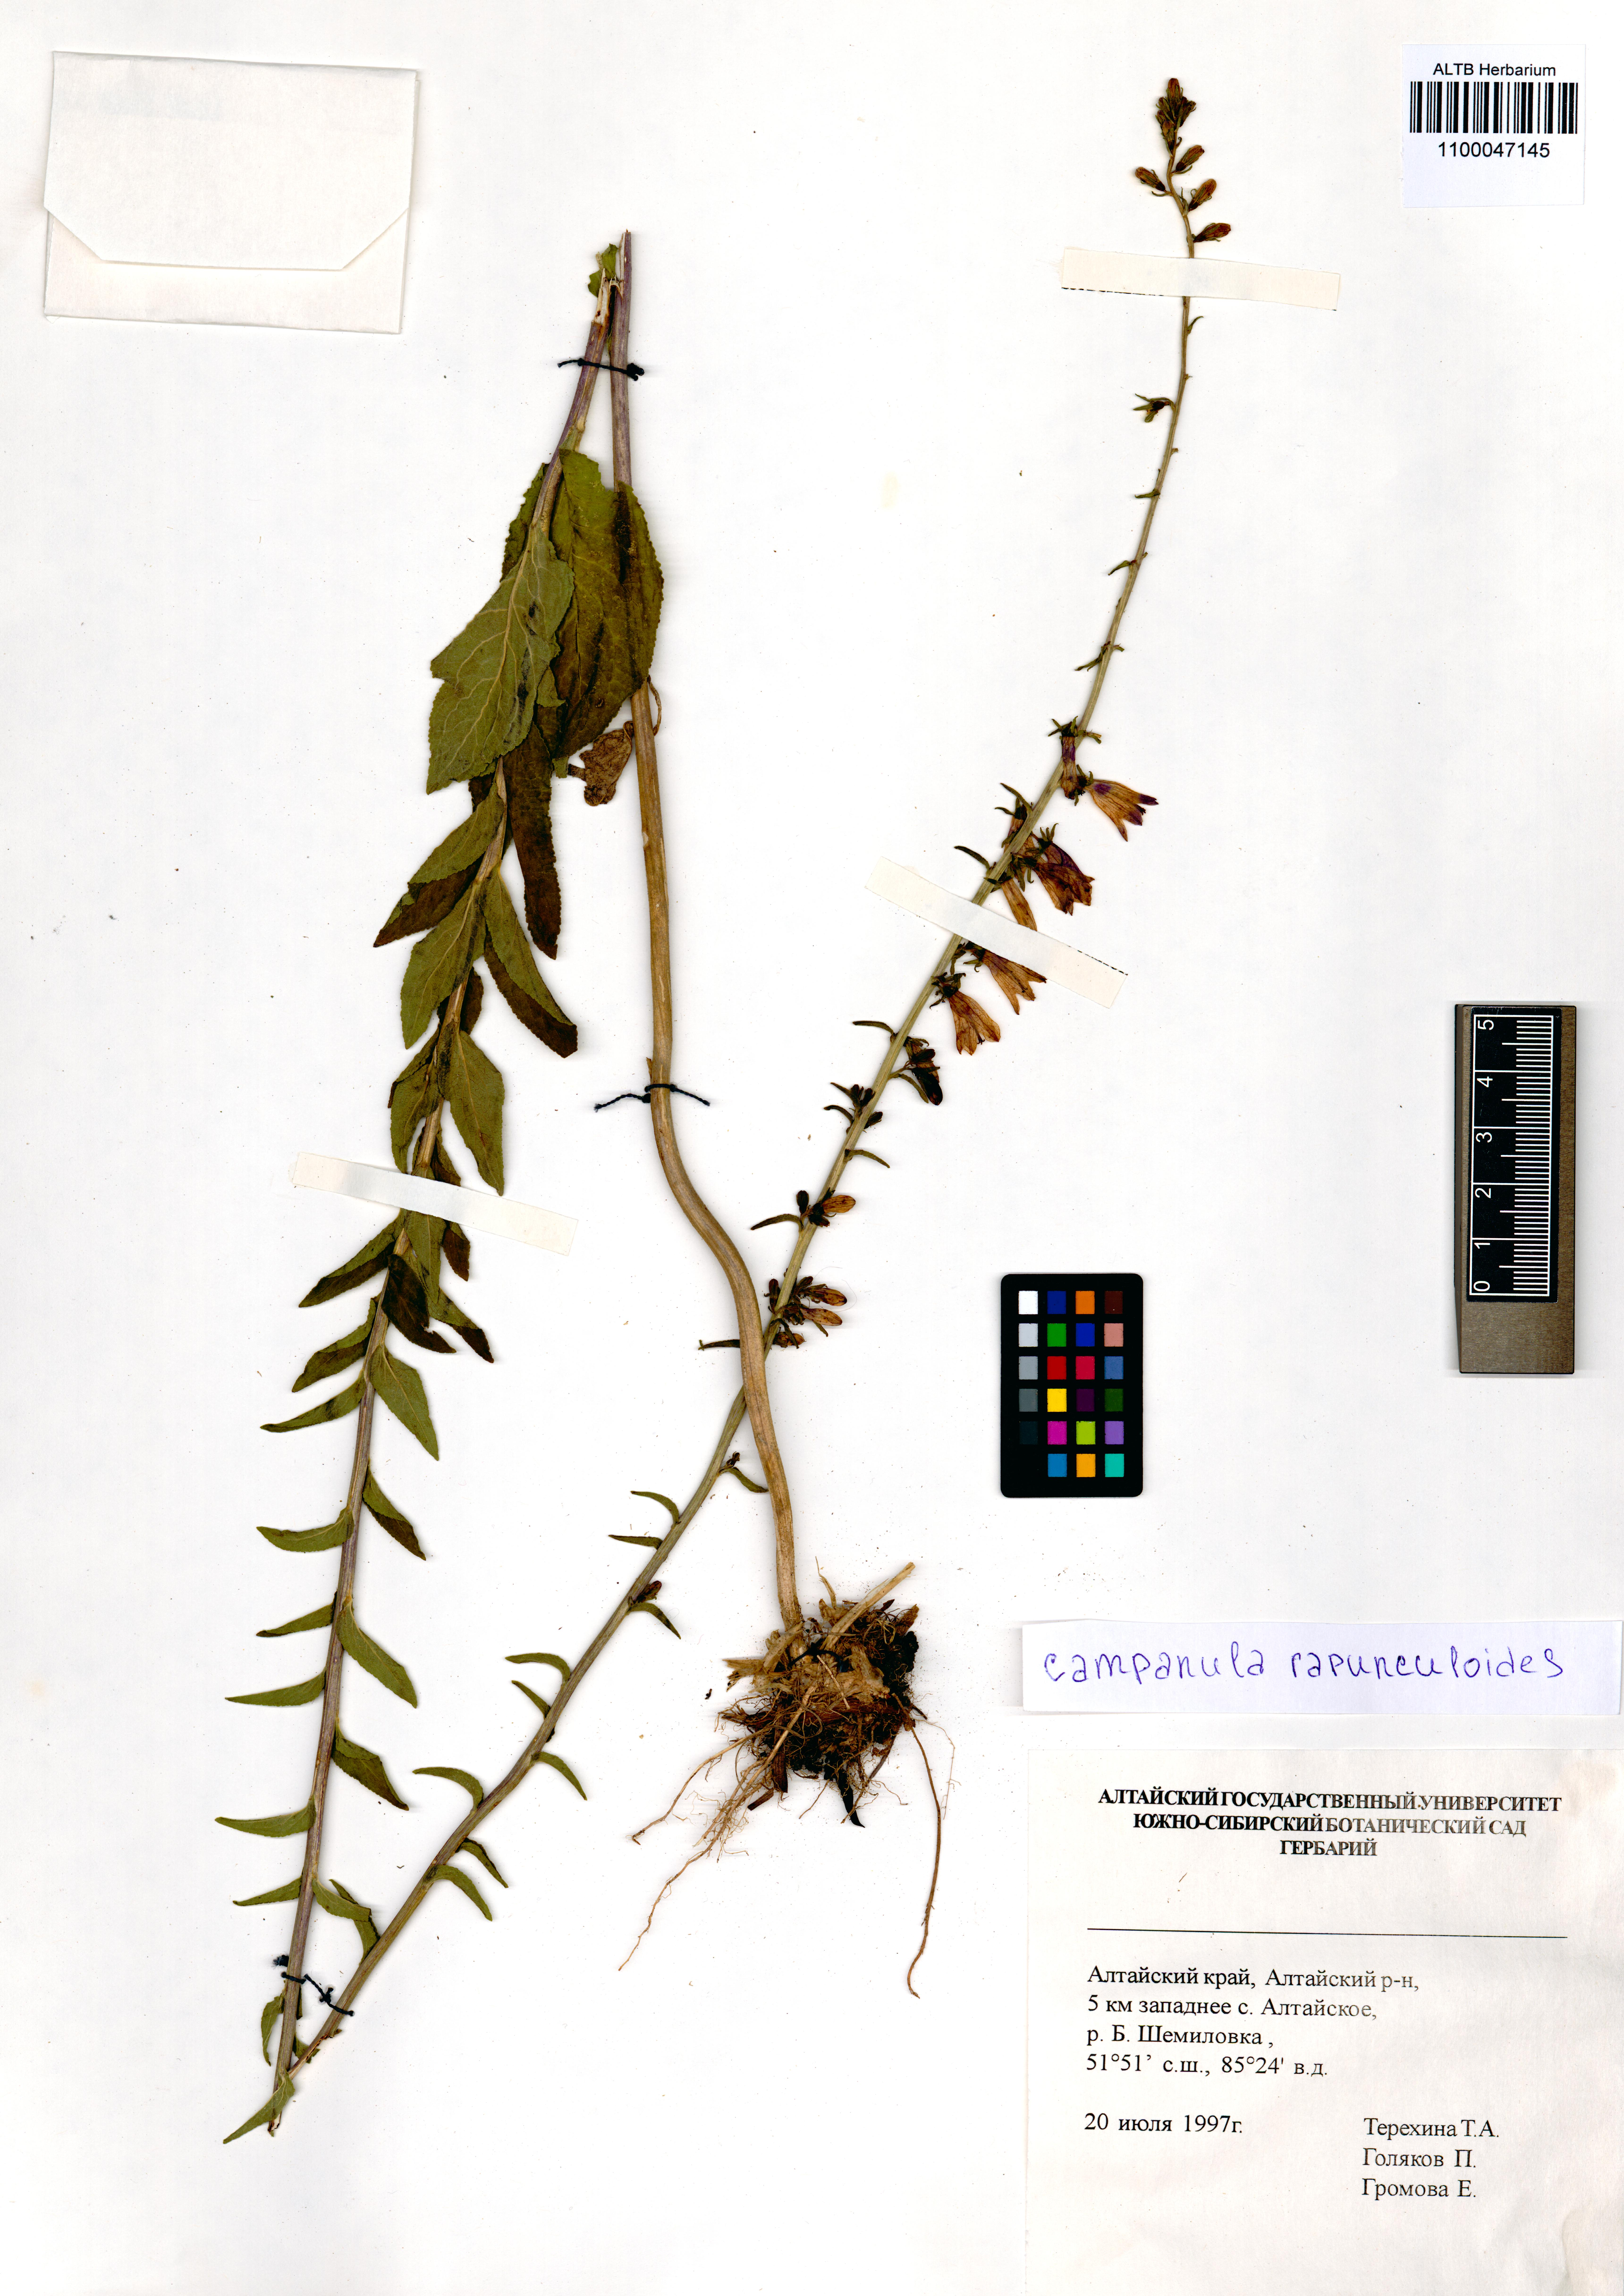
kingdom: Plantae
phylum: Tracheophyta
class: Magnoliopsida
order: Asterales
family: Campanulaceae
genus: Campanula
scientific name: Campanula rapunculoides
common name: Creeping bellflower
